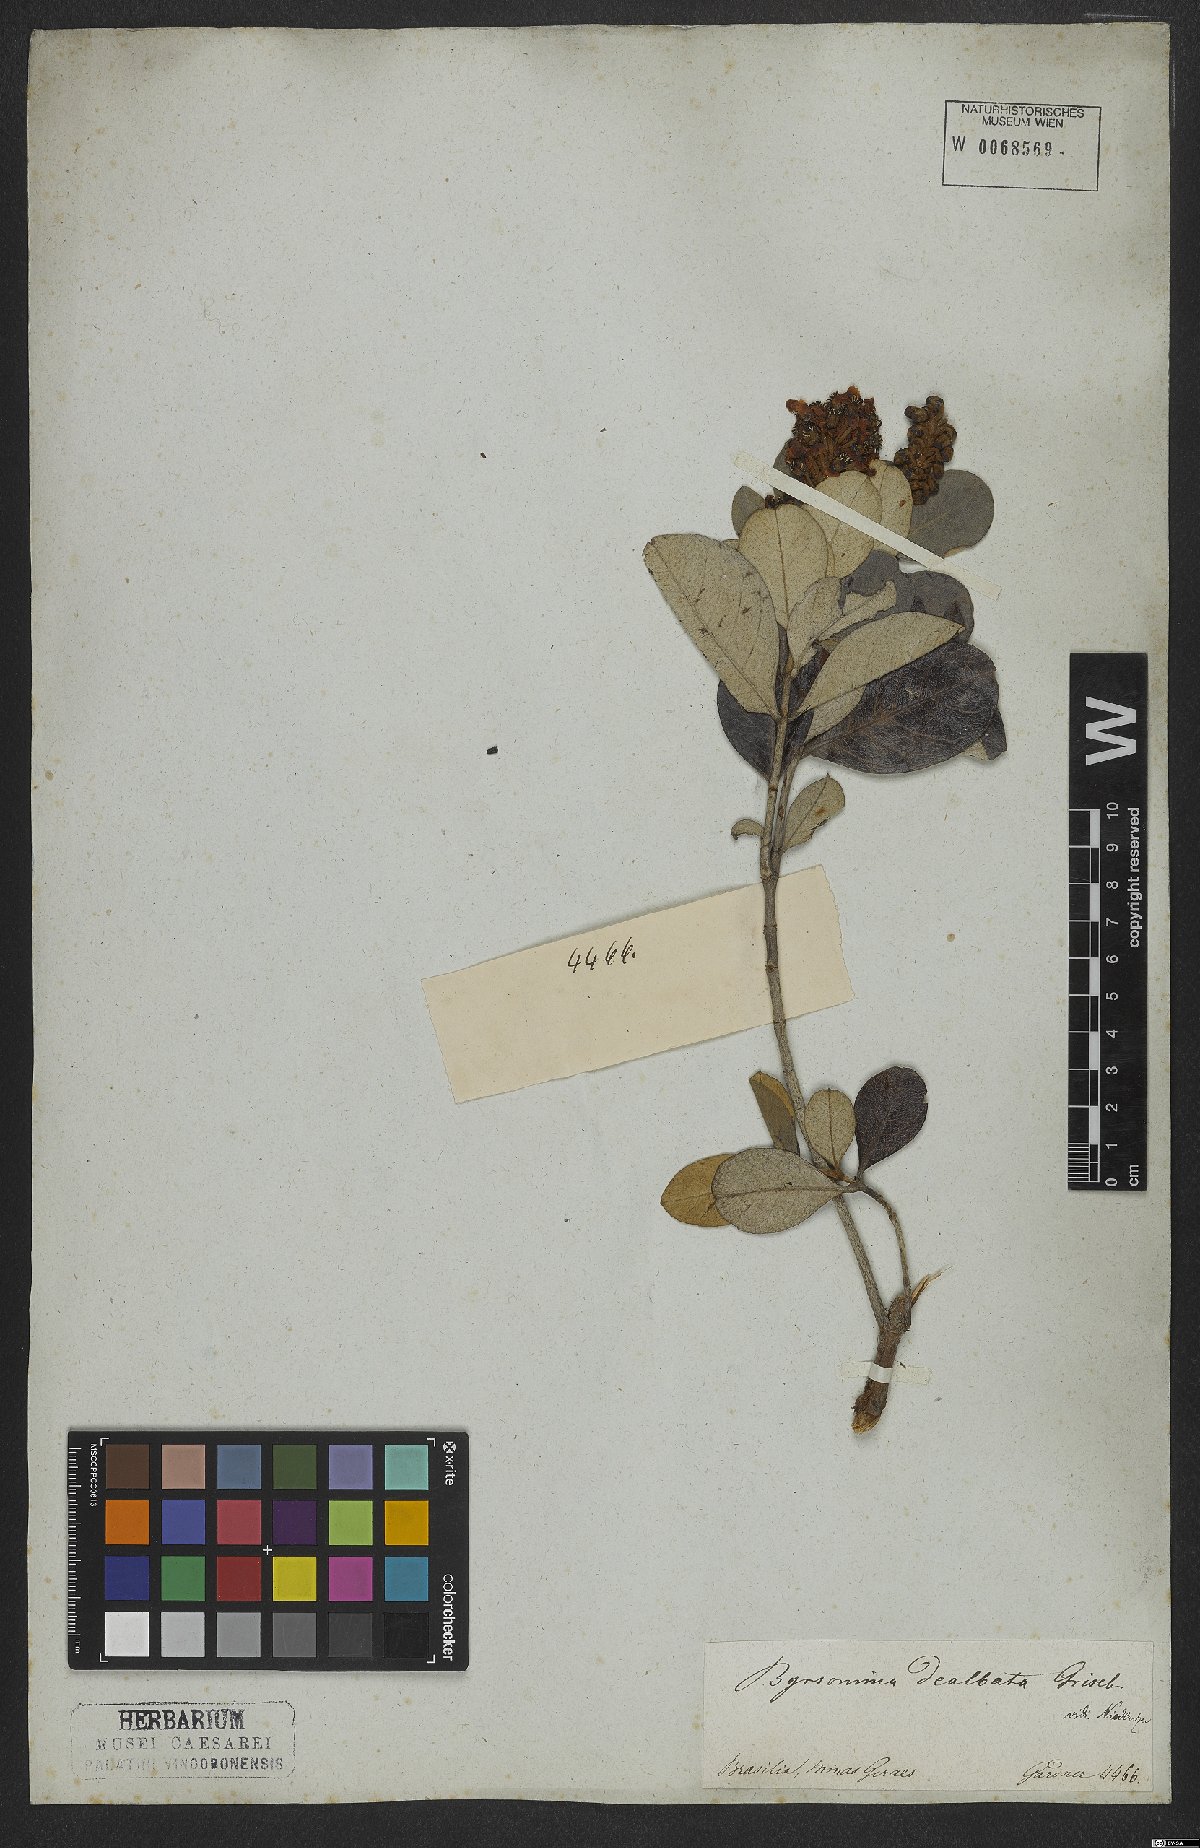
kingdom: Plantae
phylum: Tracheophyta
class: Magnoliopsida
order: Malpighiales
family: Malpighiaceae
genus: Byrsonima
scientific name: Byrsonima dealbata
